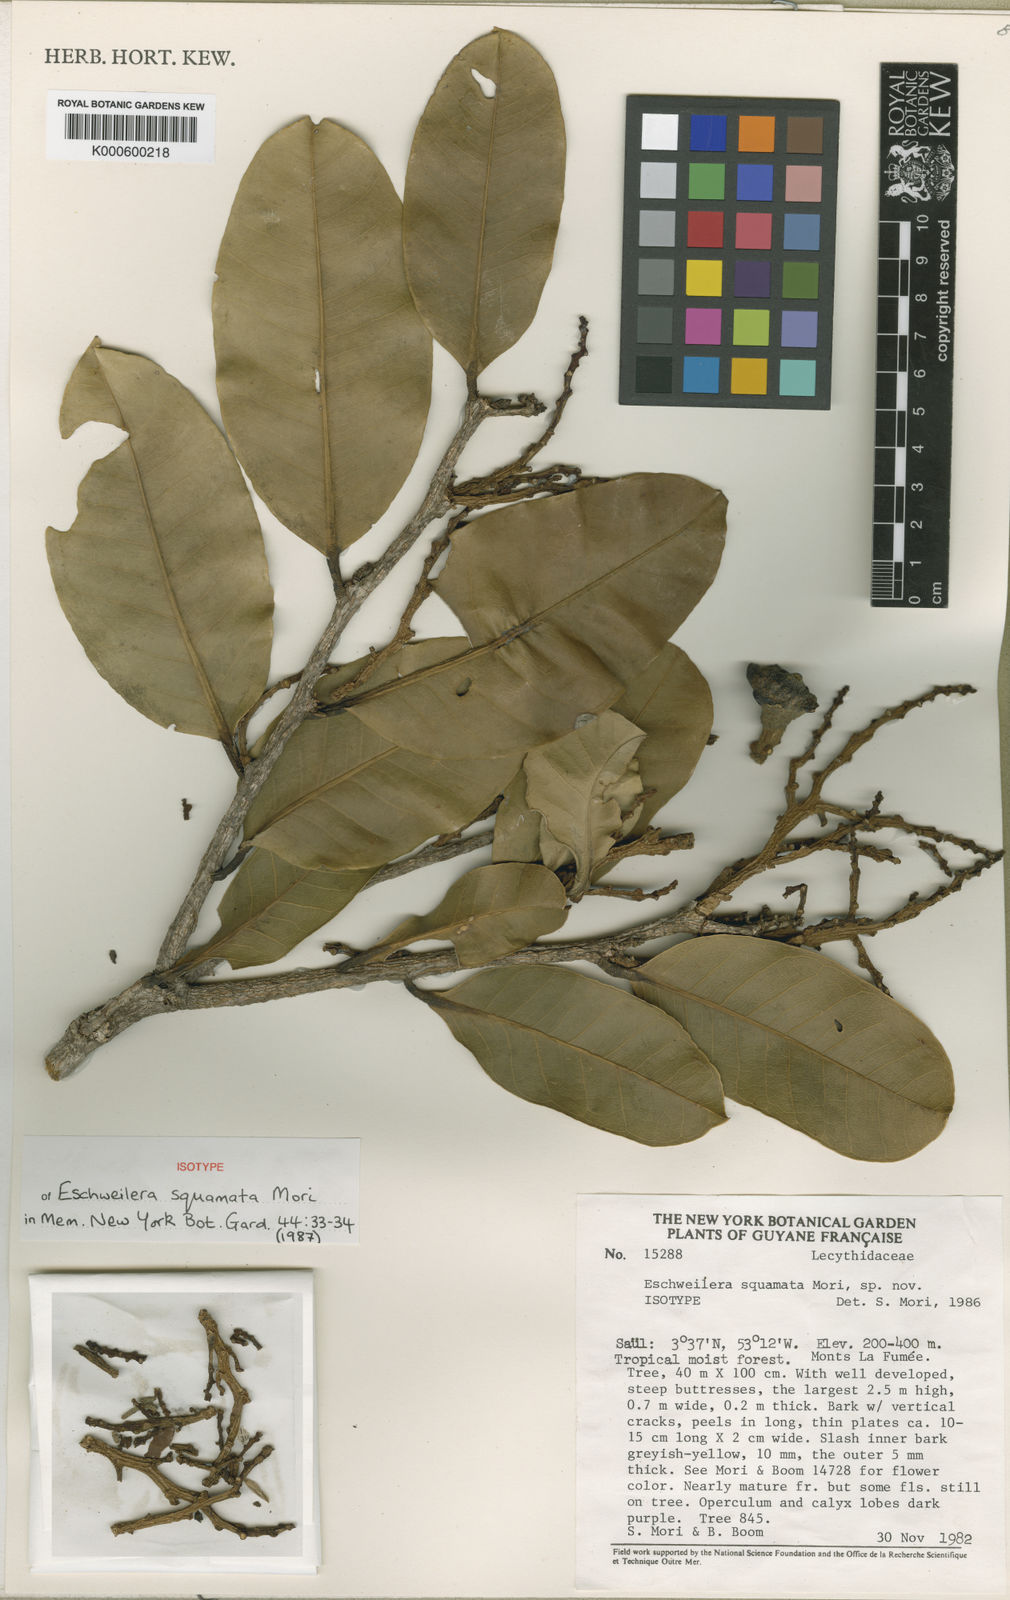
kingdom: Plantae
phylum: Tracheophyta
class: Magnoliopsida
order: Ericales
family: Lecythidaceae
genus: Eschweilera
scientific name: Eschweilera squamata
